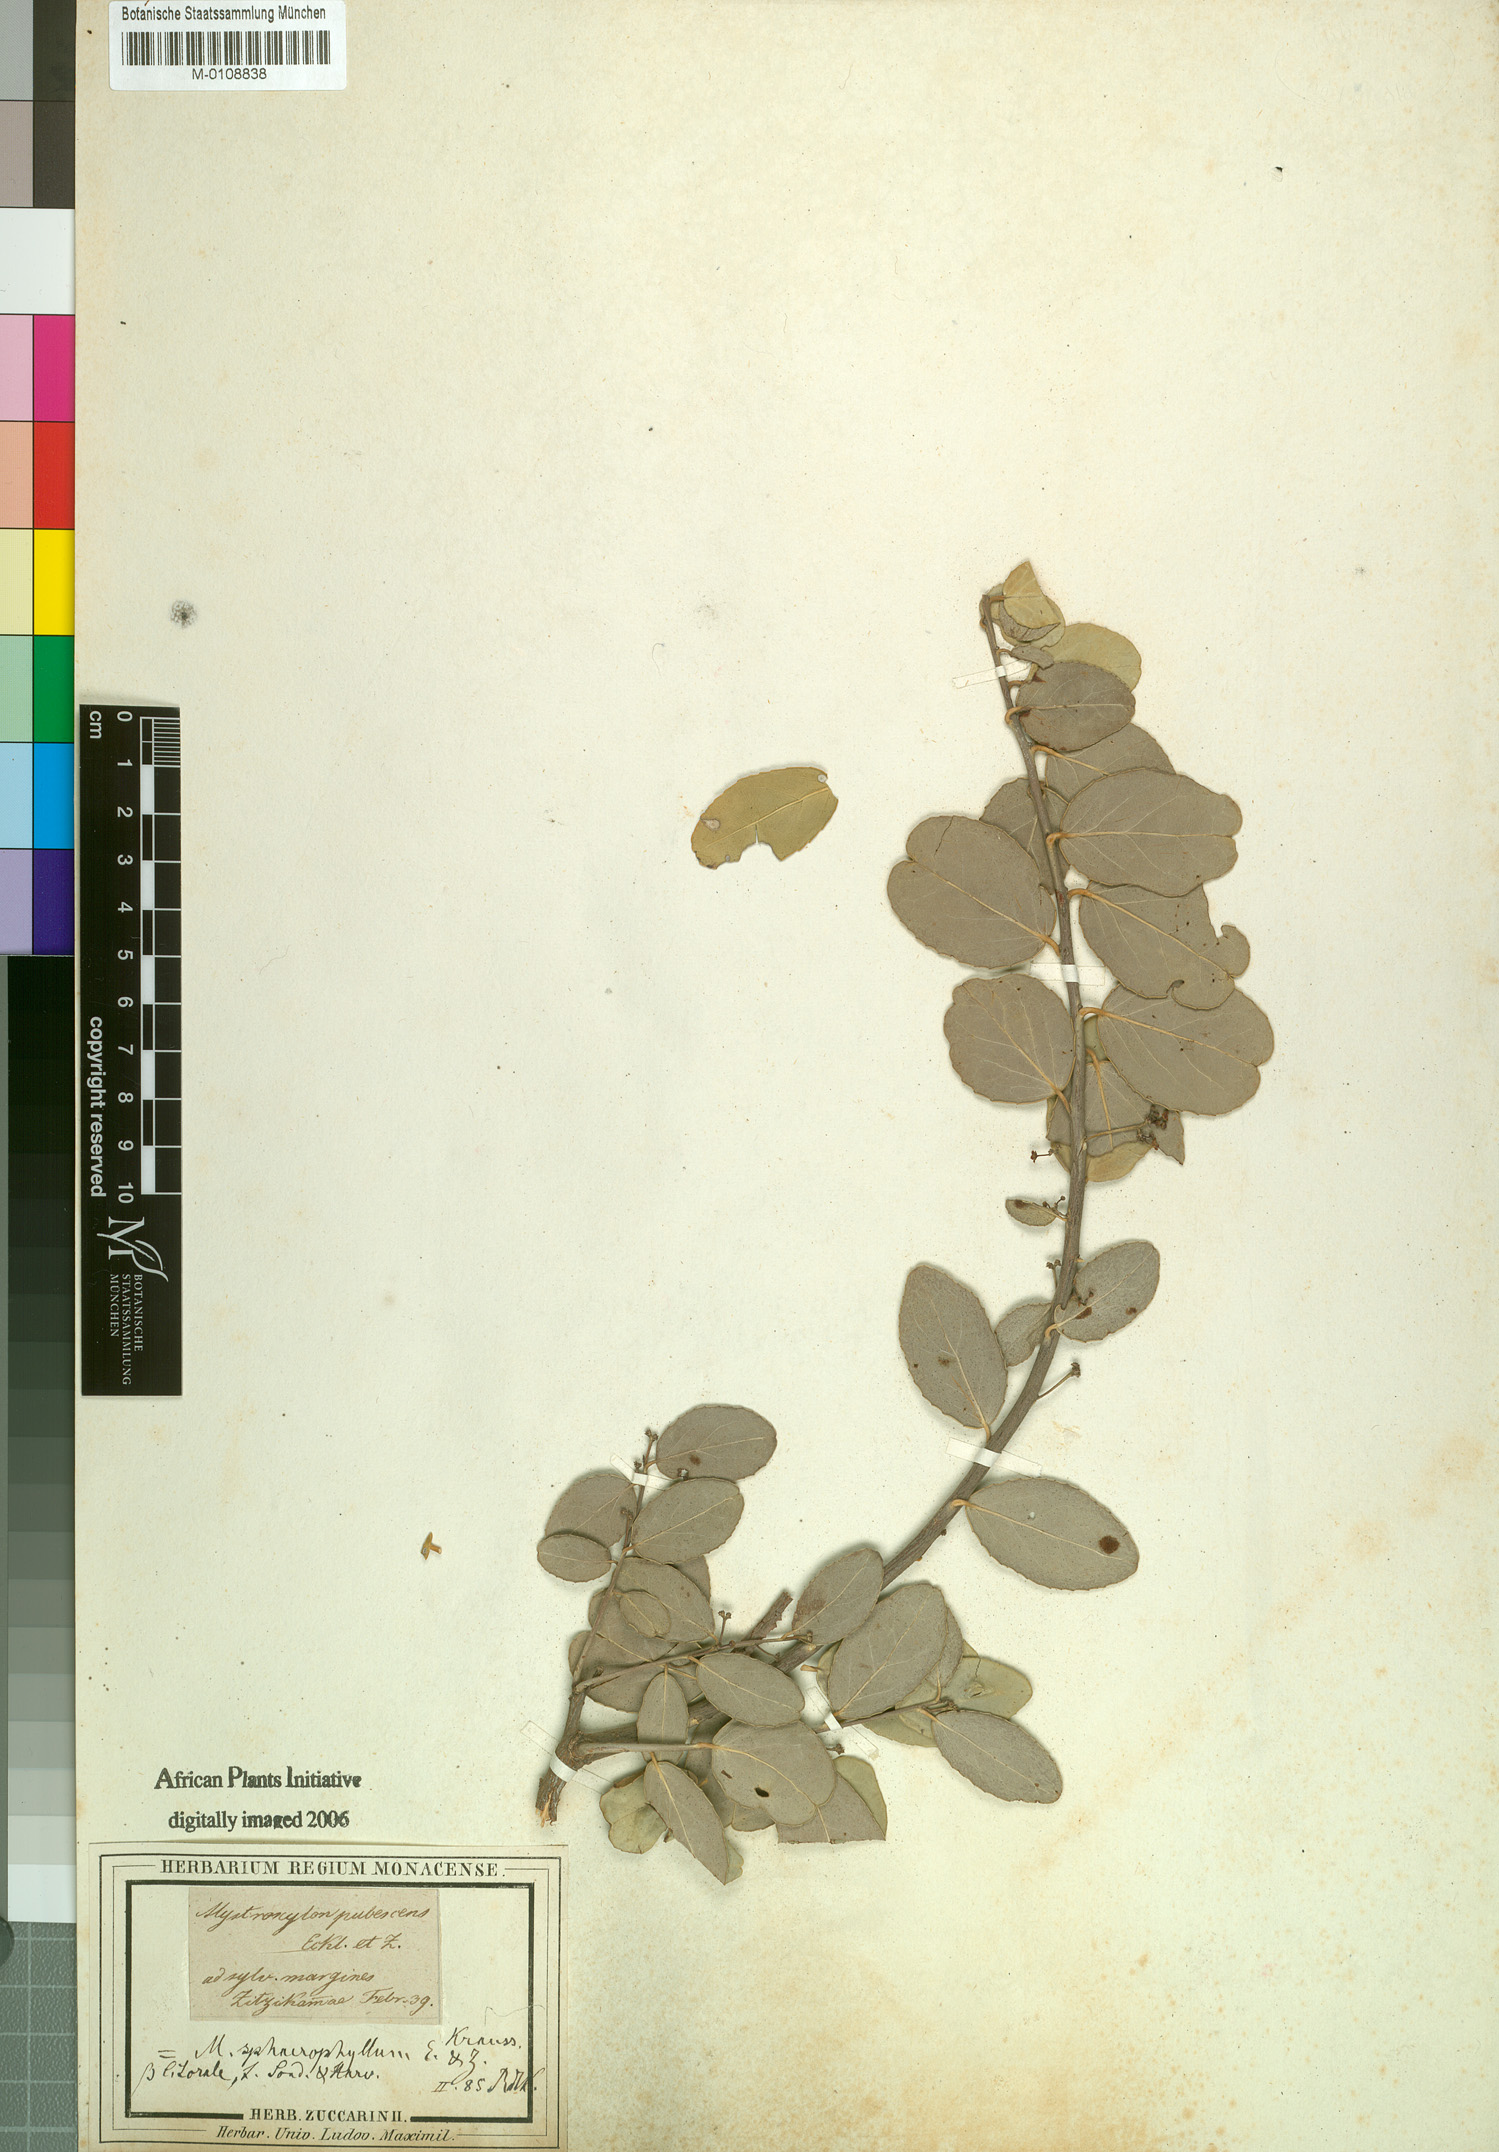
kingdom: Plantae
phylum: Tracheophyta
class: Magnoliopsida
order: Celastrales
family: Celastraceae
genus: Mystroxylon
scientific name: Mystroxylon aethiopicum
